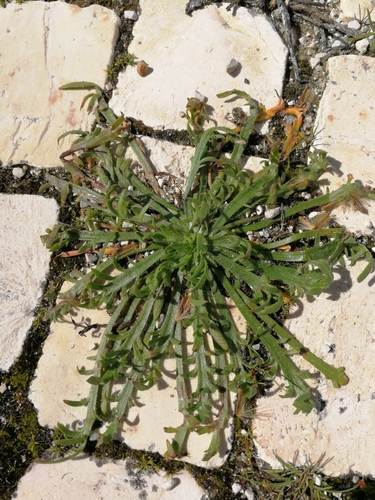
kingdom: Plantae
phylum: Tracheophyta
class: Magnoliopsida
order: Lamiales
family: Plantaginaceae
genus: Plantago
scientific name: Plantago coronopus
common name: Buck's-horn plantain
